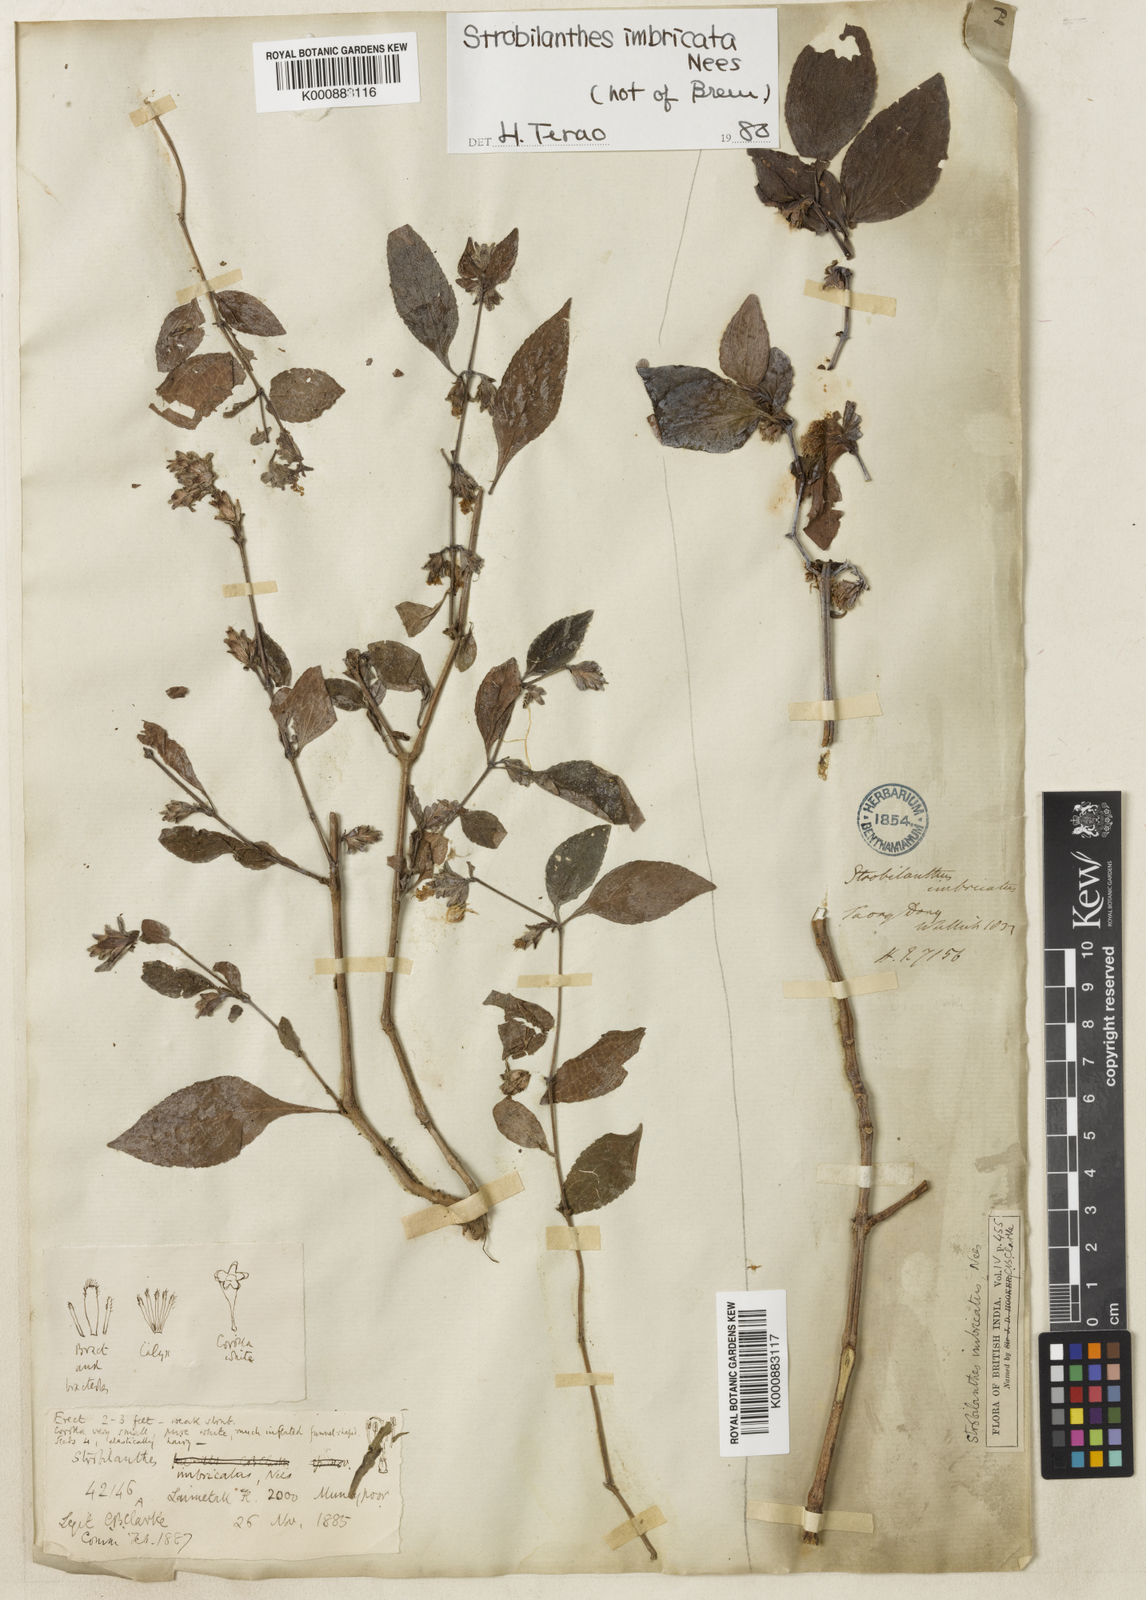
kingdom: Plantae
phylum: Tracheophyta
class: Magnoliopsida
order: Lamiales
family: Acanthaceae
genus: Strobilanthes
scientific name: Strobilanthes imbricata
